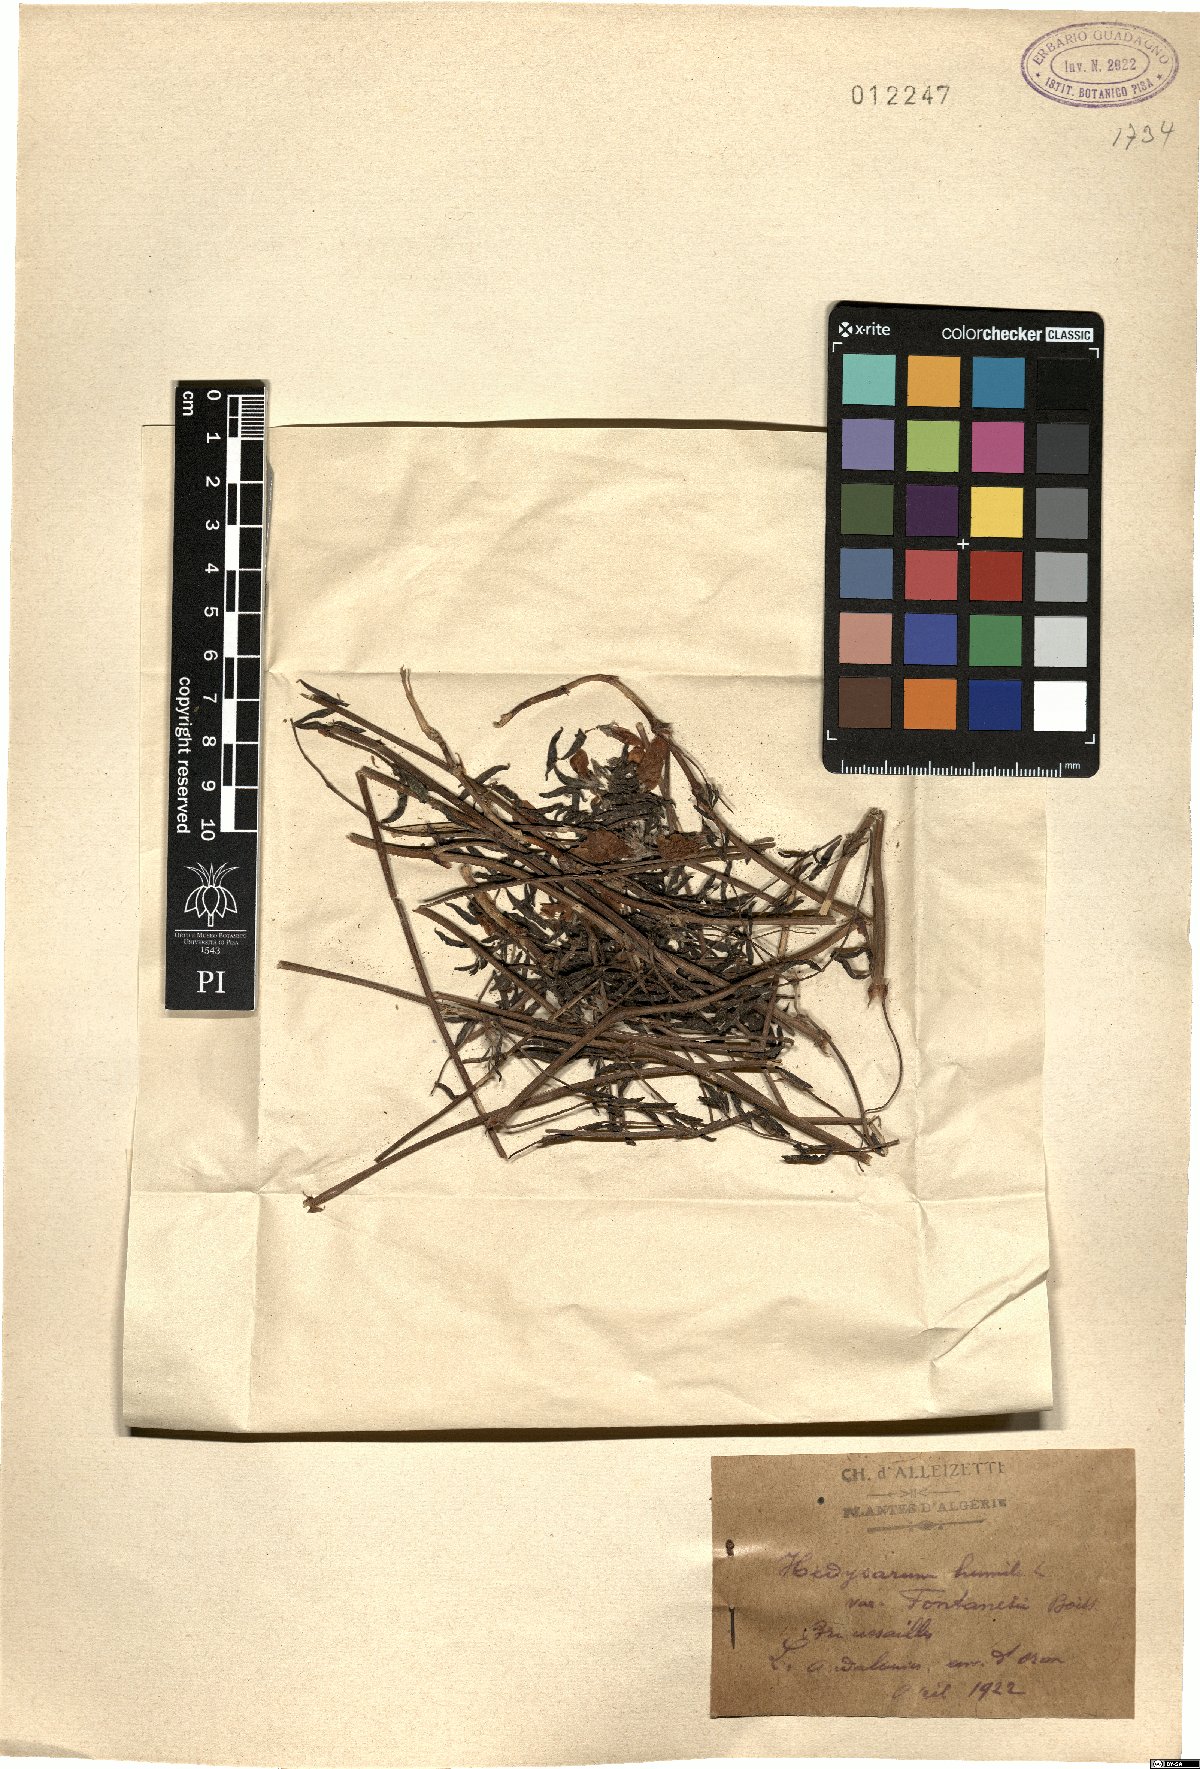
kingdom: Plantae
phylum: Tracheophyta
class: Magnoliopsida
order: Fabales
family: Fabaceae
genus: Hedysarum
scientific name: Hedysarum humile
